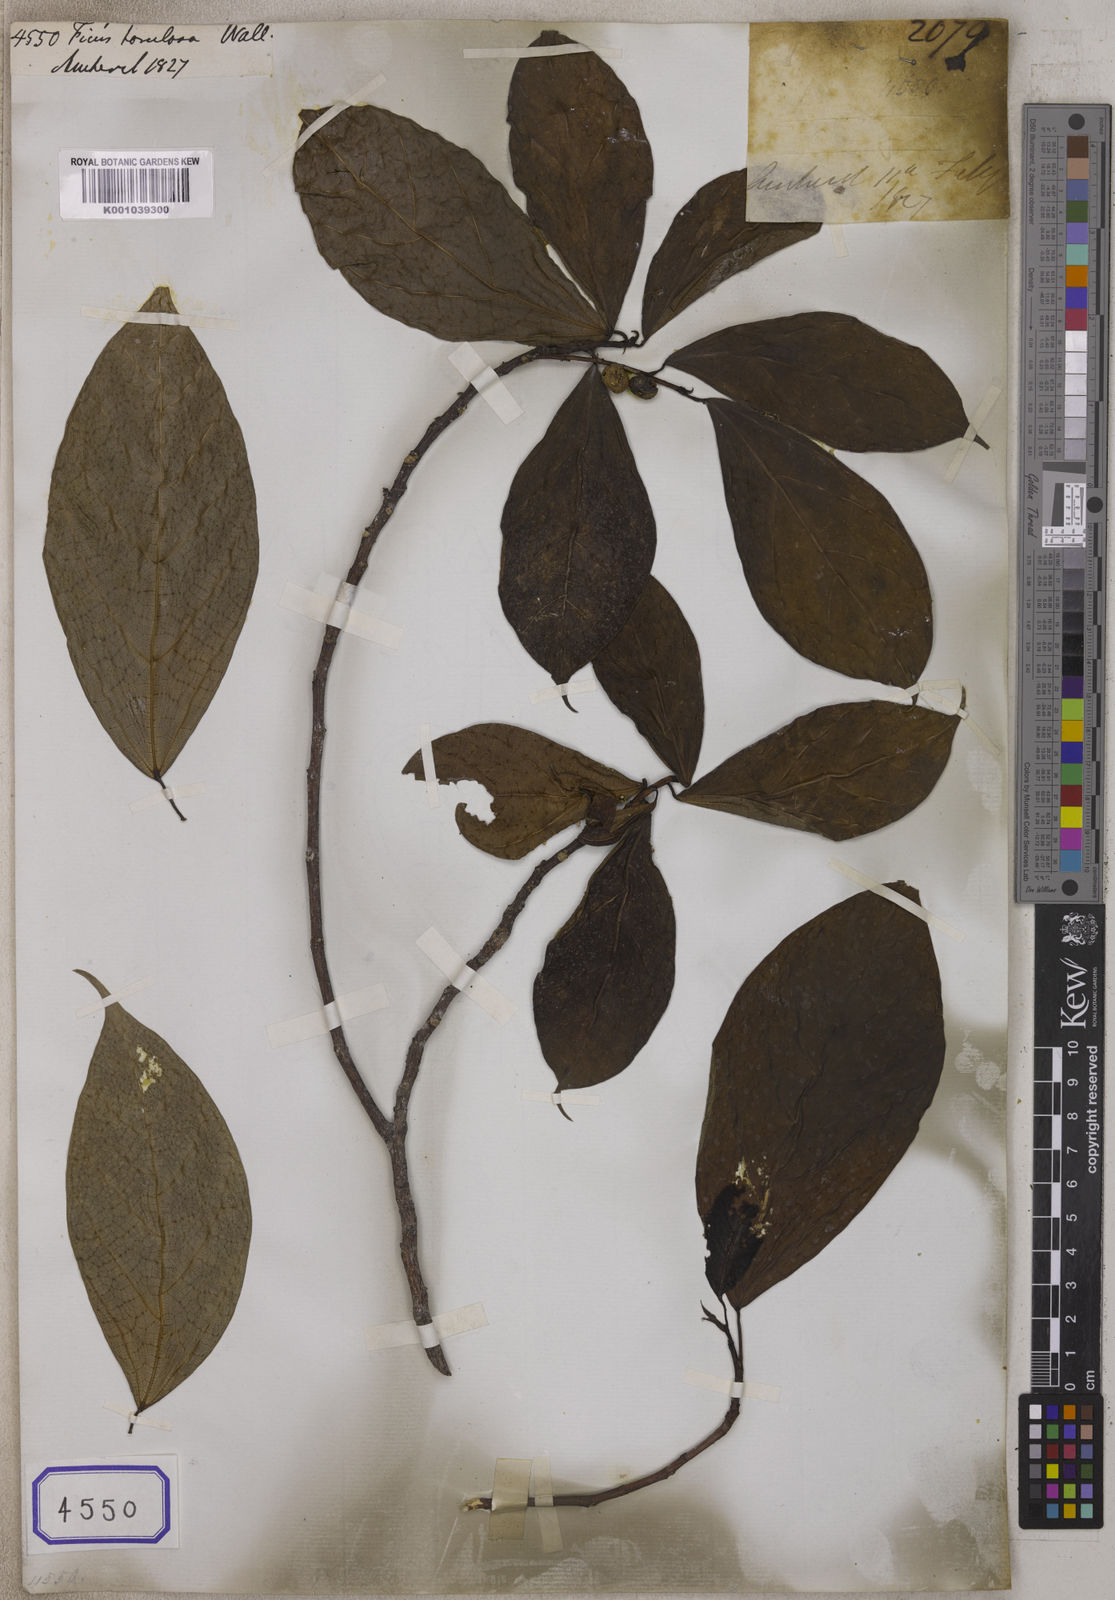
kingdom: Plantae
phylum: Tracheophyta
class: Magnoliopsida
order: Rosales
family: Moraceae
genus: Ficus
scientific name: Ficus
